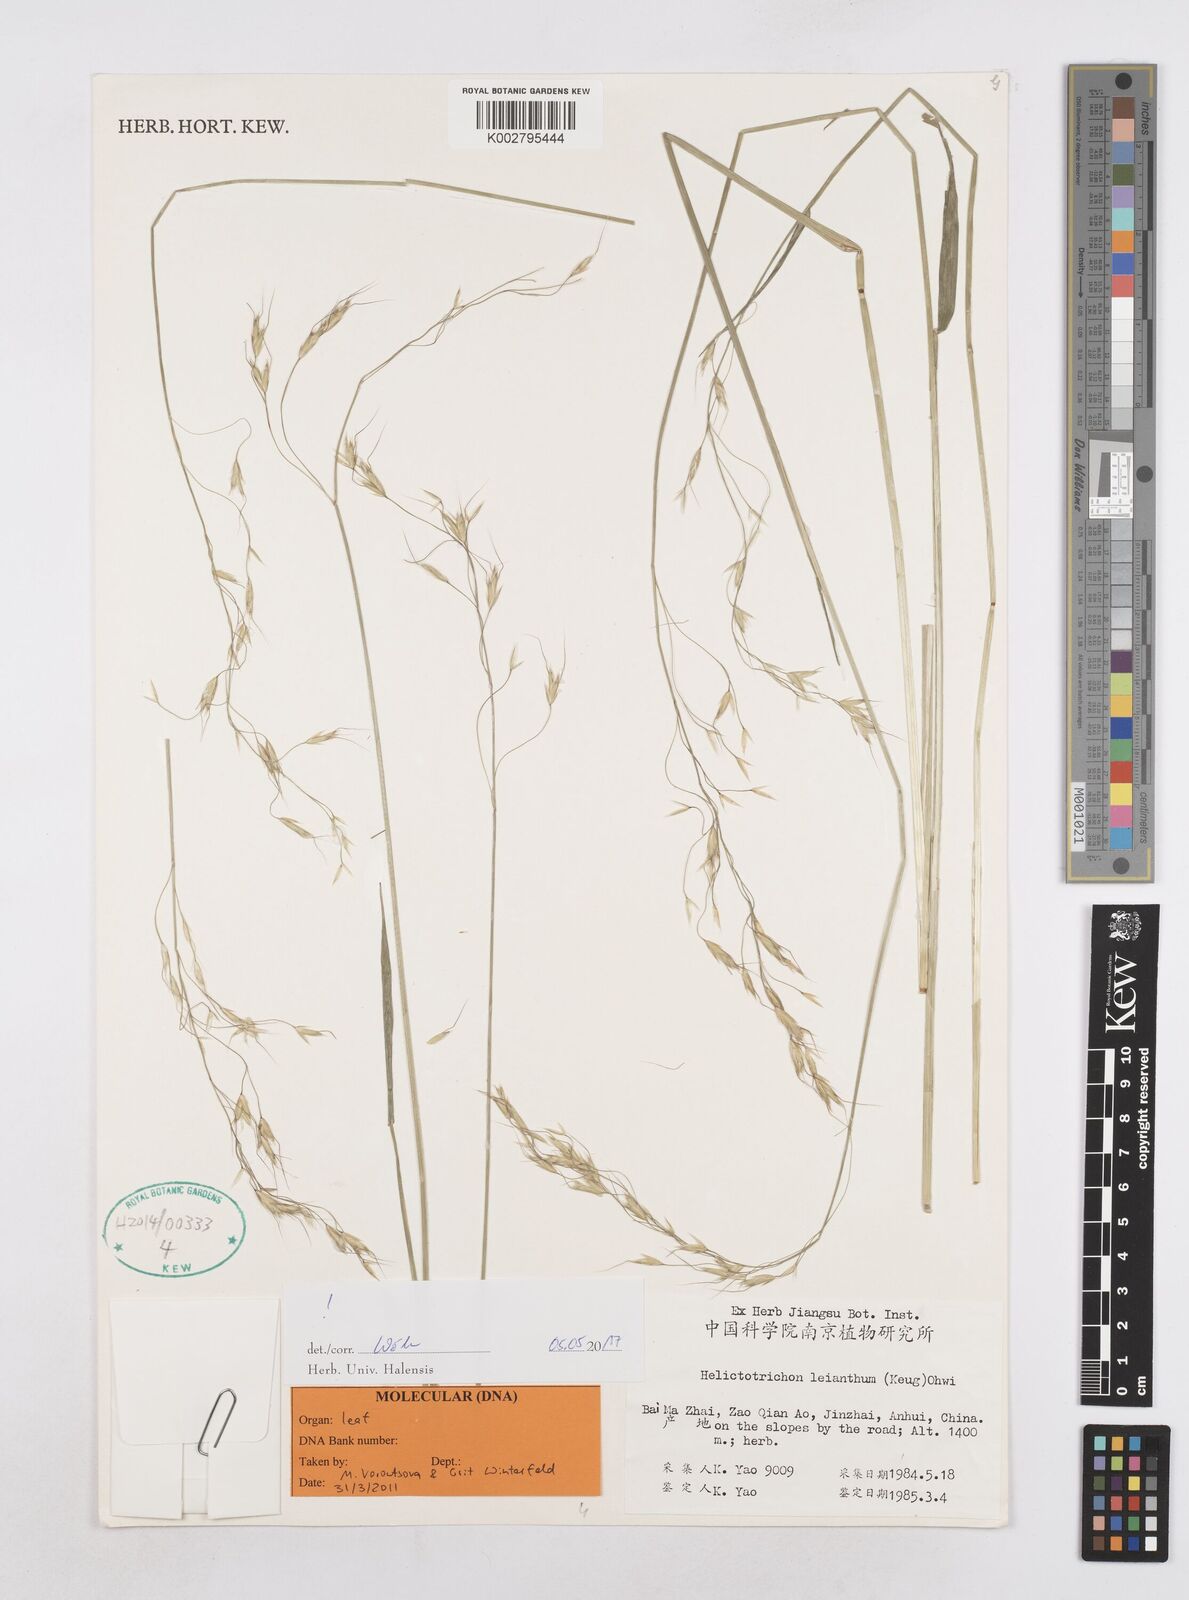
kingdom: Plantae
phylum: Tracheophyta
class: Liliopsida
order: Poales
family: Poaceae
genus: Helictotrichon
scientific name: Helictotrichon leianthum
